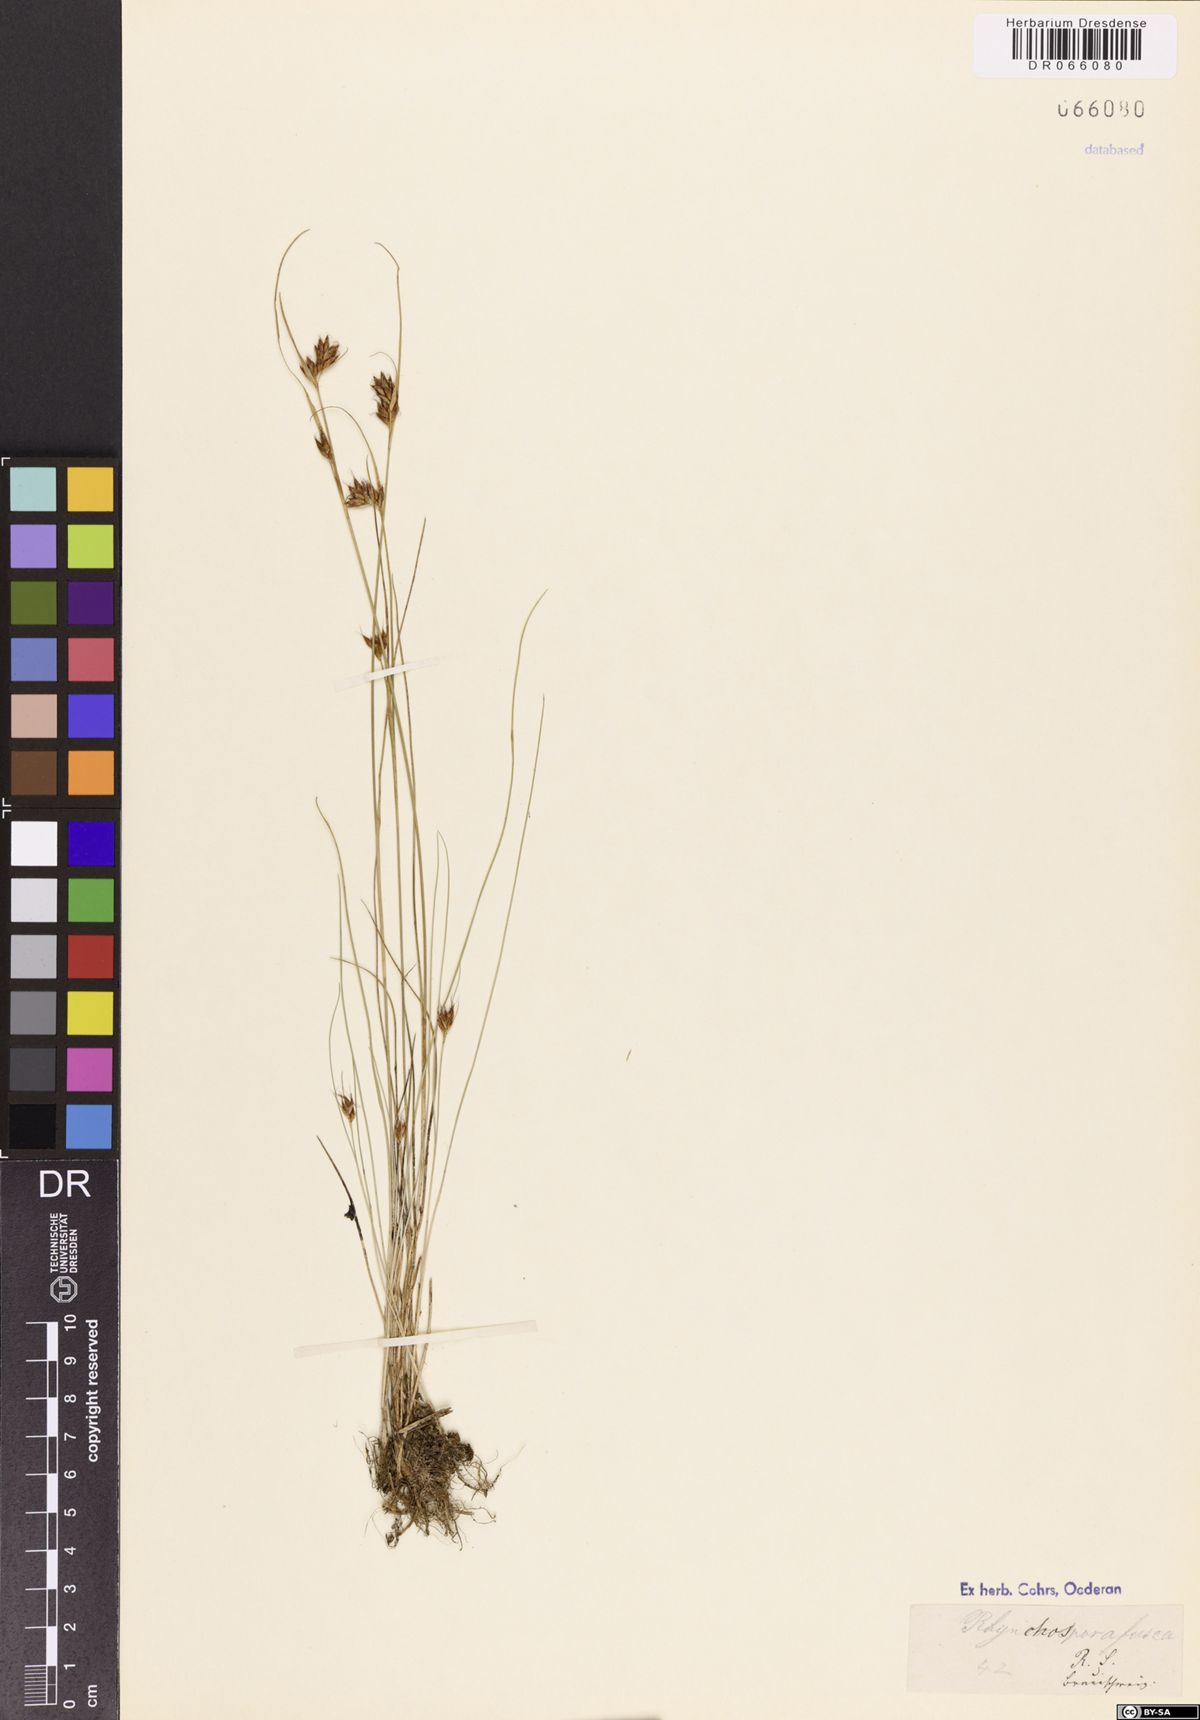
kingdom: Plantae
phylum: Tracheophyta
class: Liliopsida
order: Poales
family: Cyperaceae
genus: Rhynchospora
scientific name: Rhynchospora fusca
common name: Brown beak-sedge
